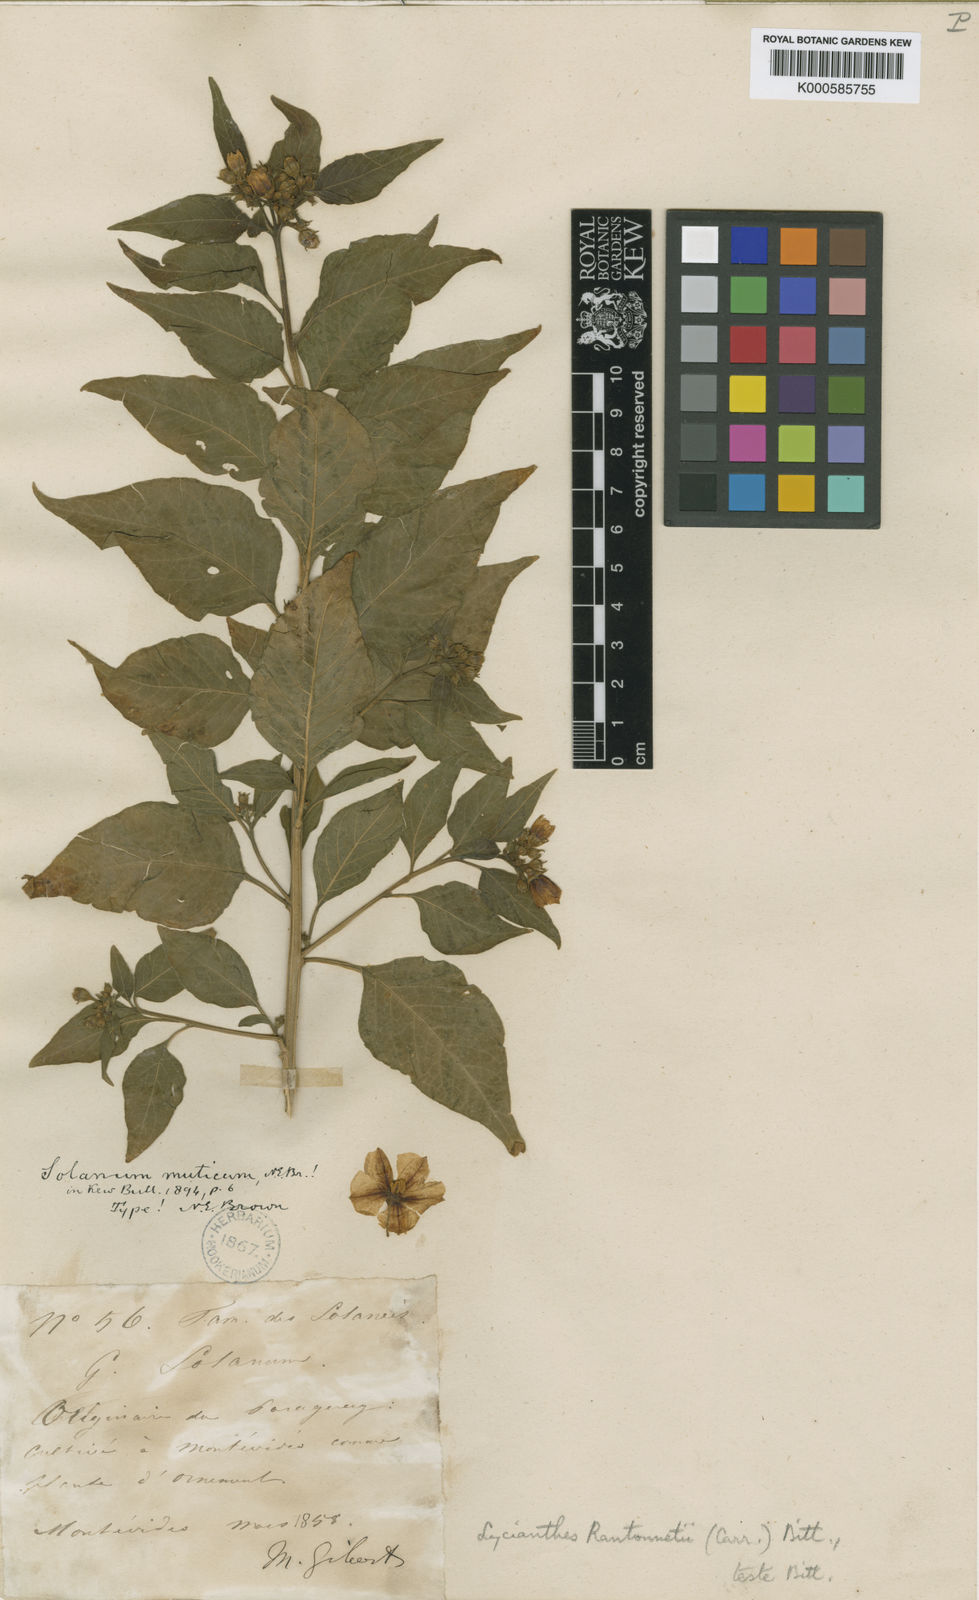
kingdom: Plantae
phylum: Tracheophyta
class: Magnoliopsida
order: Solanales
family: Solanaceae
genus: Lycianthes
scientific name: Lycianthes
